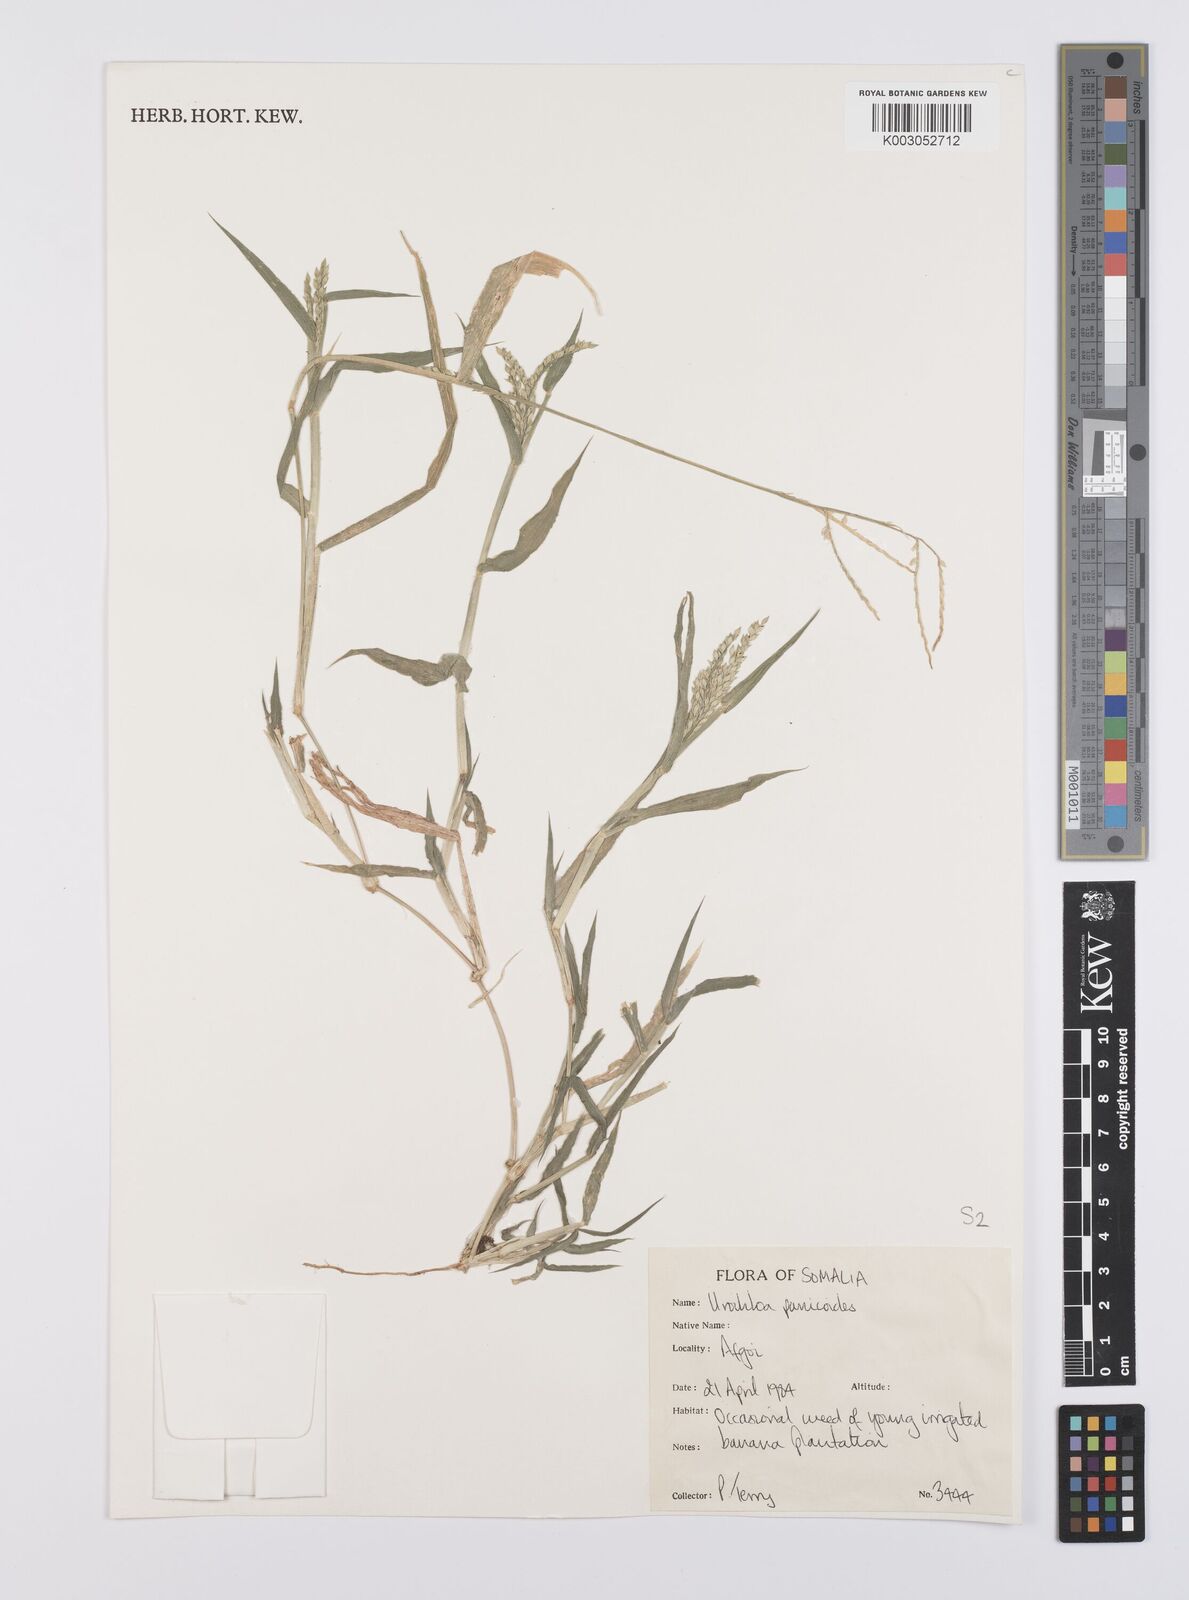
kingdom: Plantae
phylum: Tracheophyta
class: Liliopsida
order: Poales
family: Poaceae
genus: Urochloa
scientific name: Urochloa panicoides
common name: Sharp-flowered signal-grass
